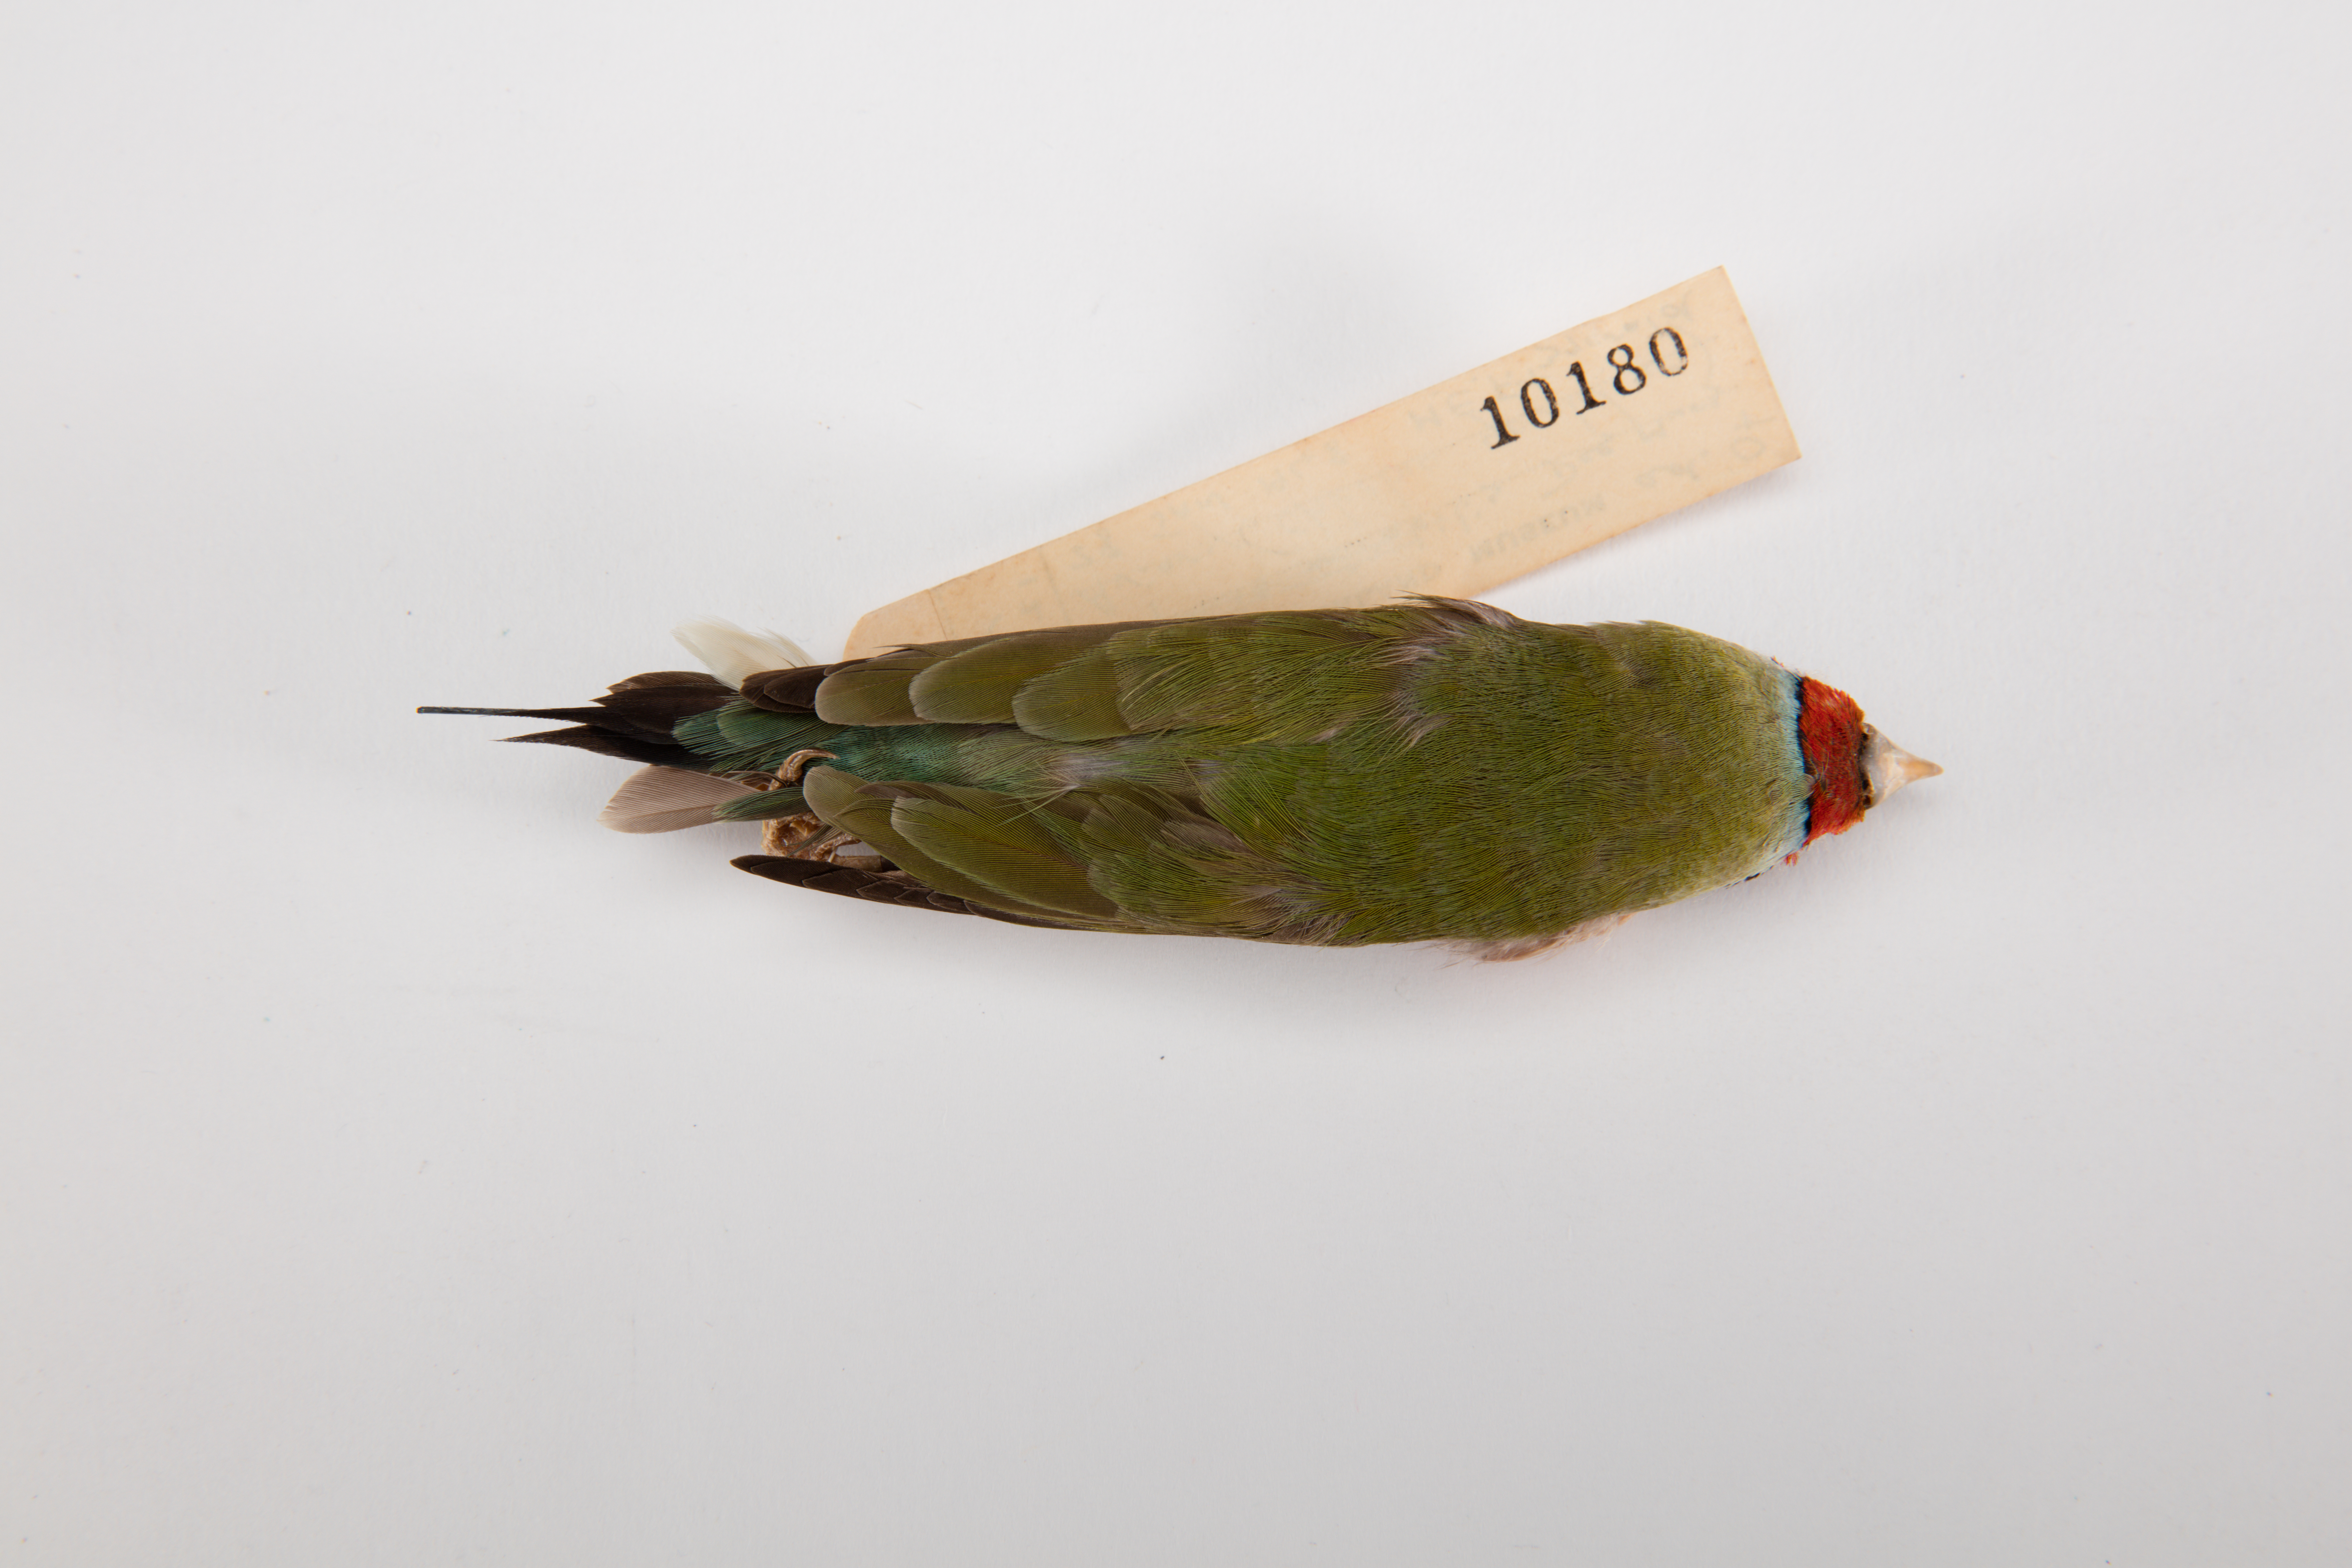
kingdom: Animalia
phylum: Chordata
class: Aves
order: Passeriformes
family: Estrildidae
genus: Erythrura
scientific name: Erythrura gouldiae
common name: Gouldian finch
